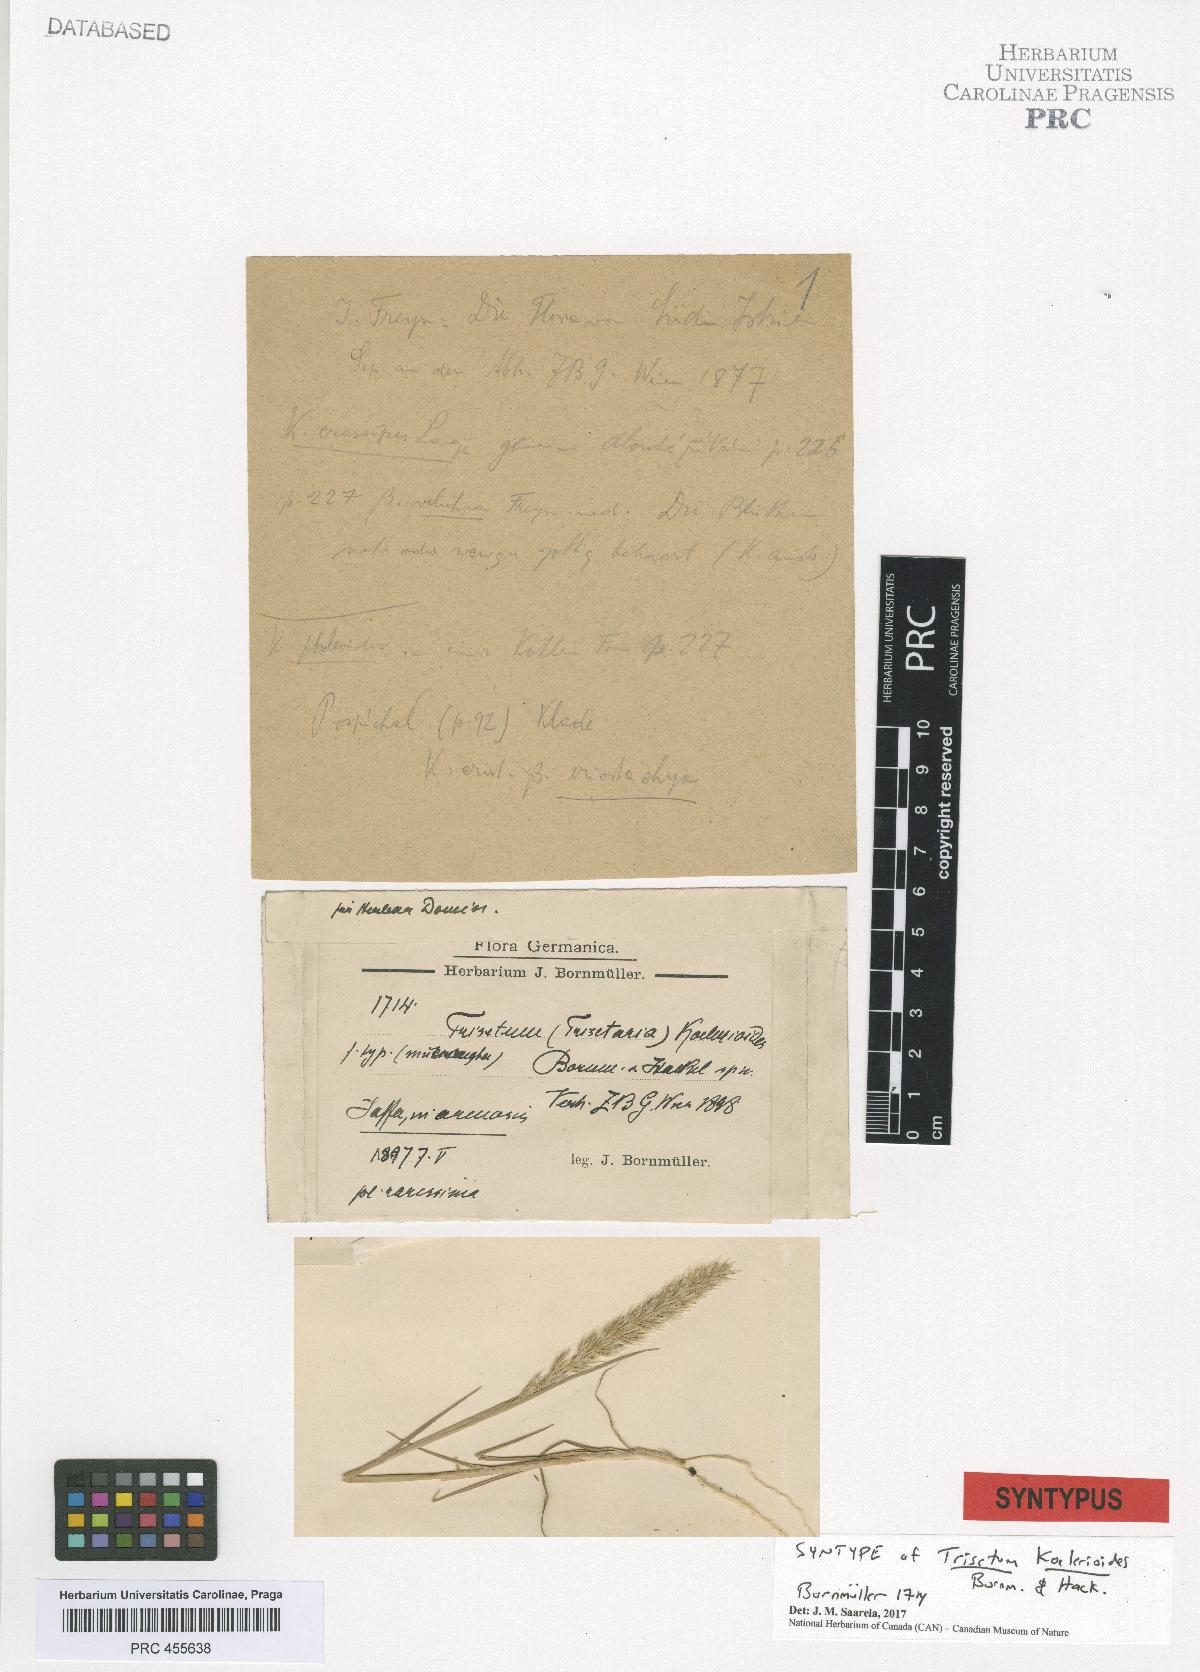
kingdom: Plantae
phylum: Tracheophyta
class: Liliopsida
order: Poales
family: Poaceae
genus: Trisetaria
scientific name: Trisetaria koelerioides
